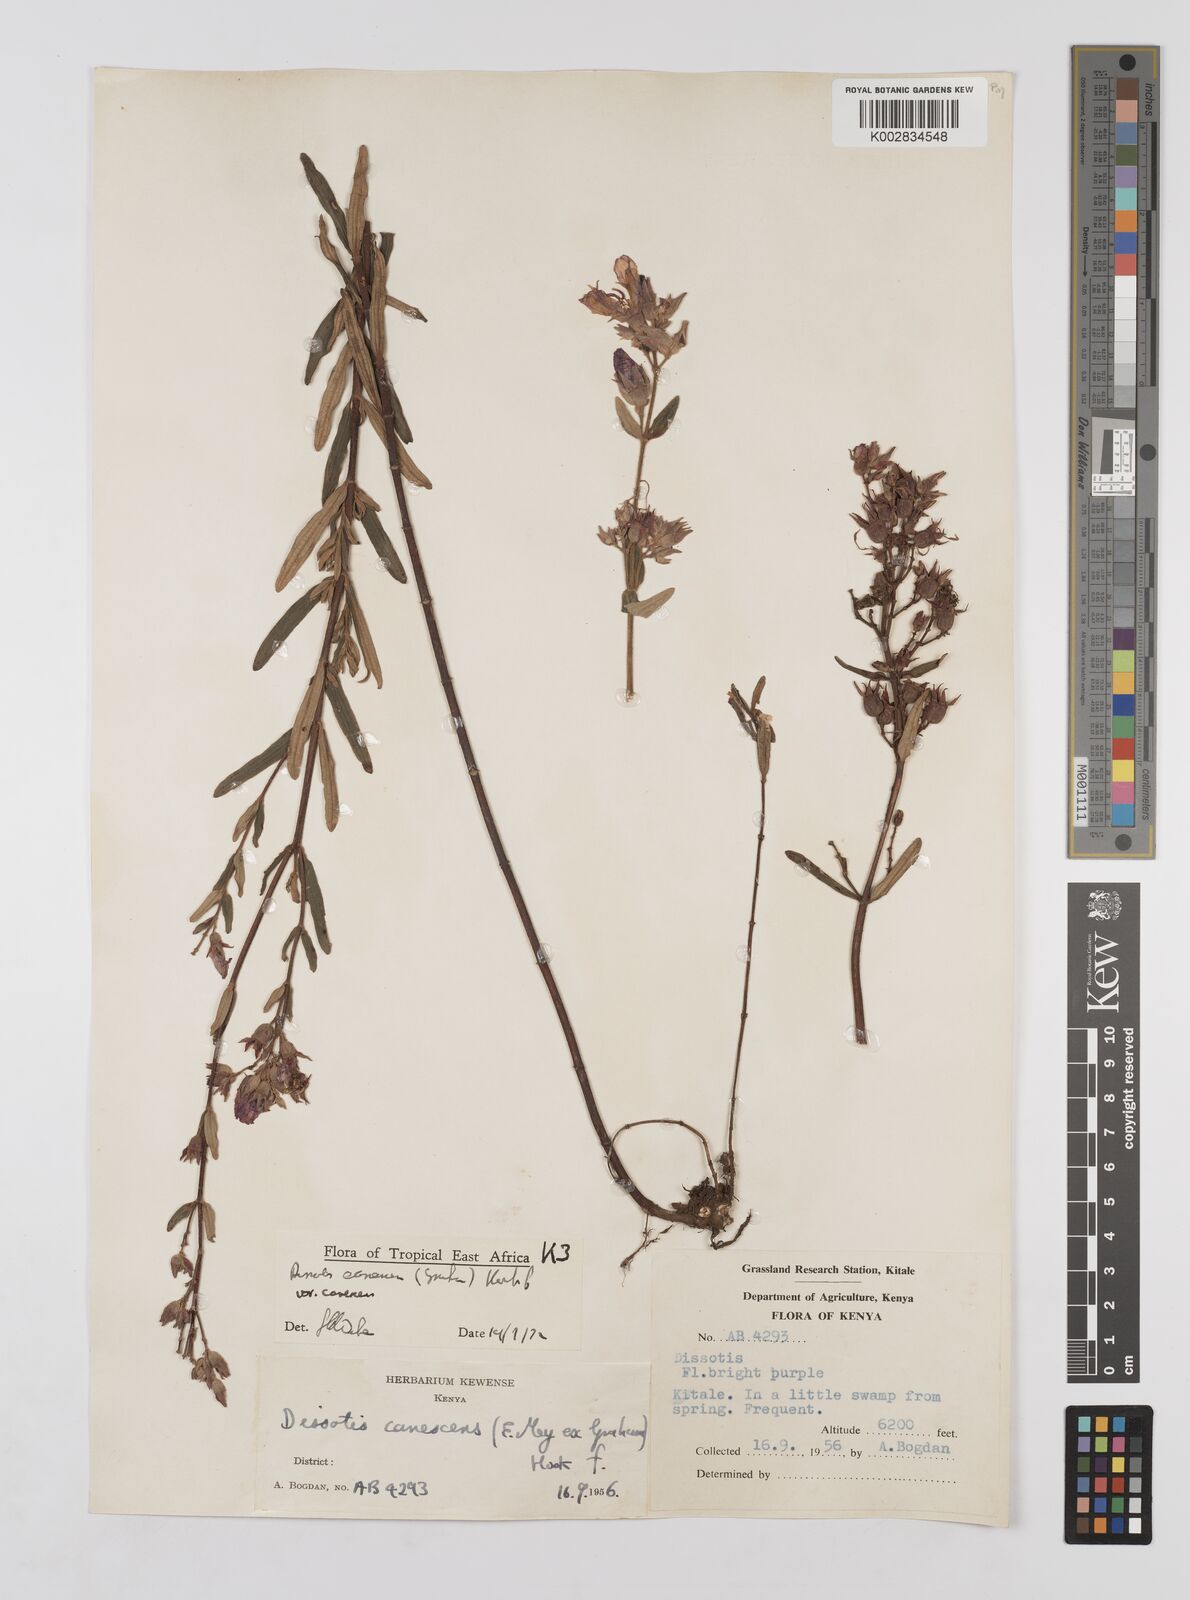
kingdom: Plantae
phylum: Tracheophyta
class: Magnoliopsida
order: Myrtales
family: Melastomataceae
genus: Argyrella
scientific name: Argyrella canescens
